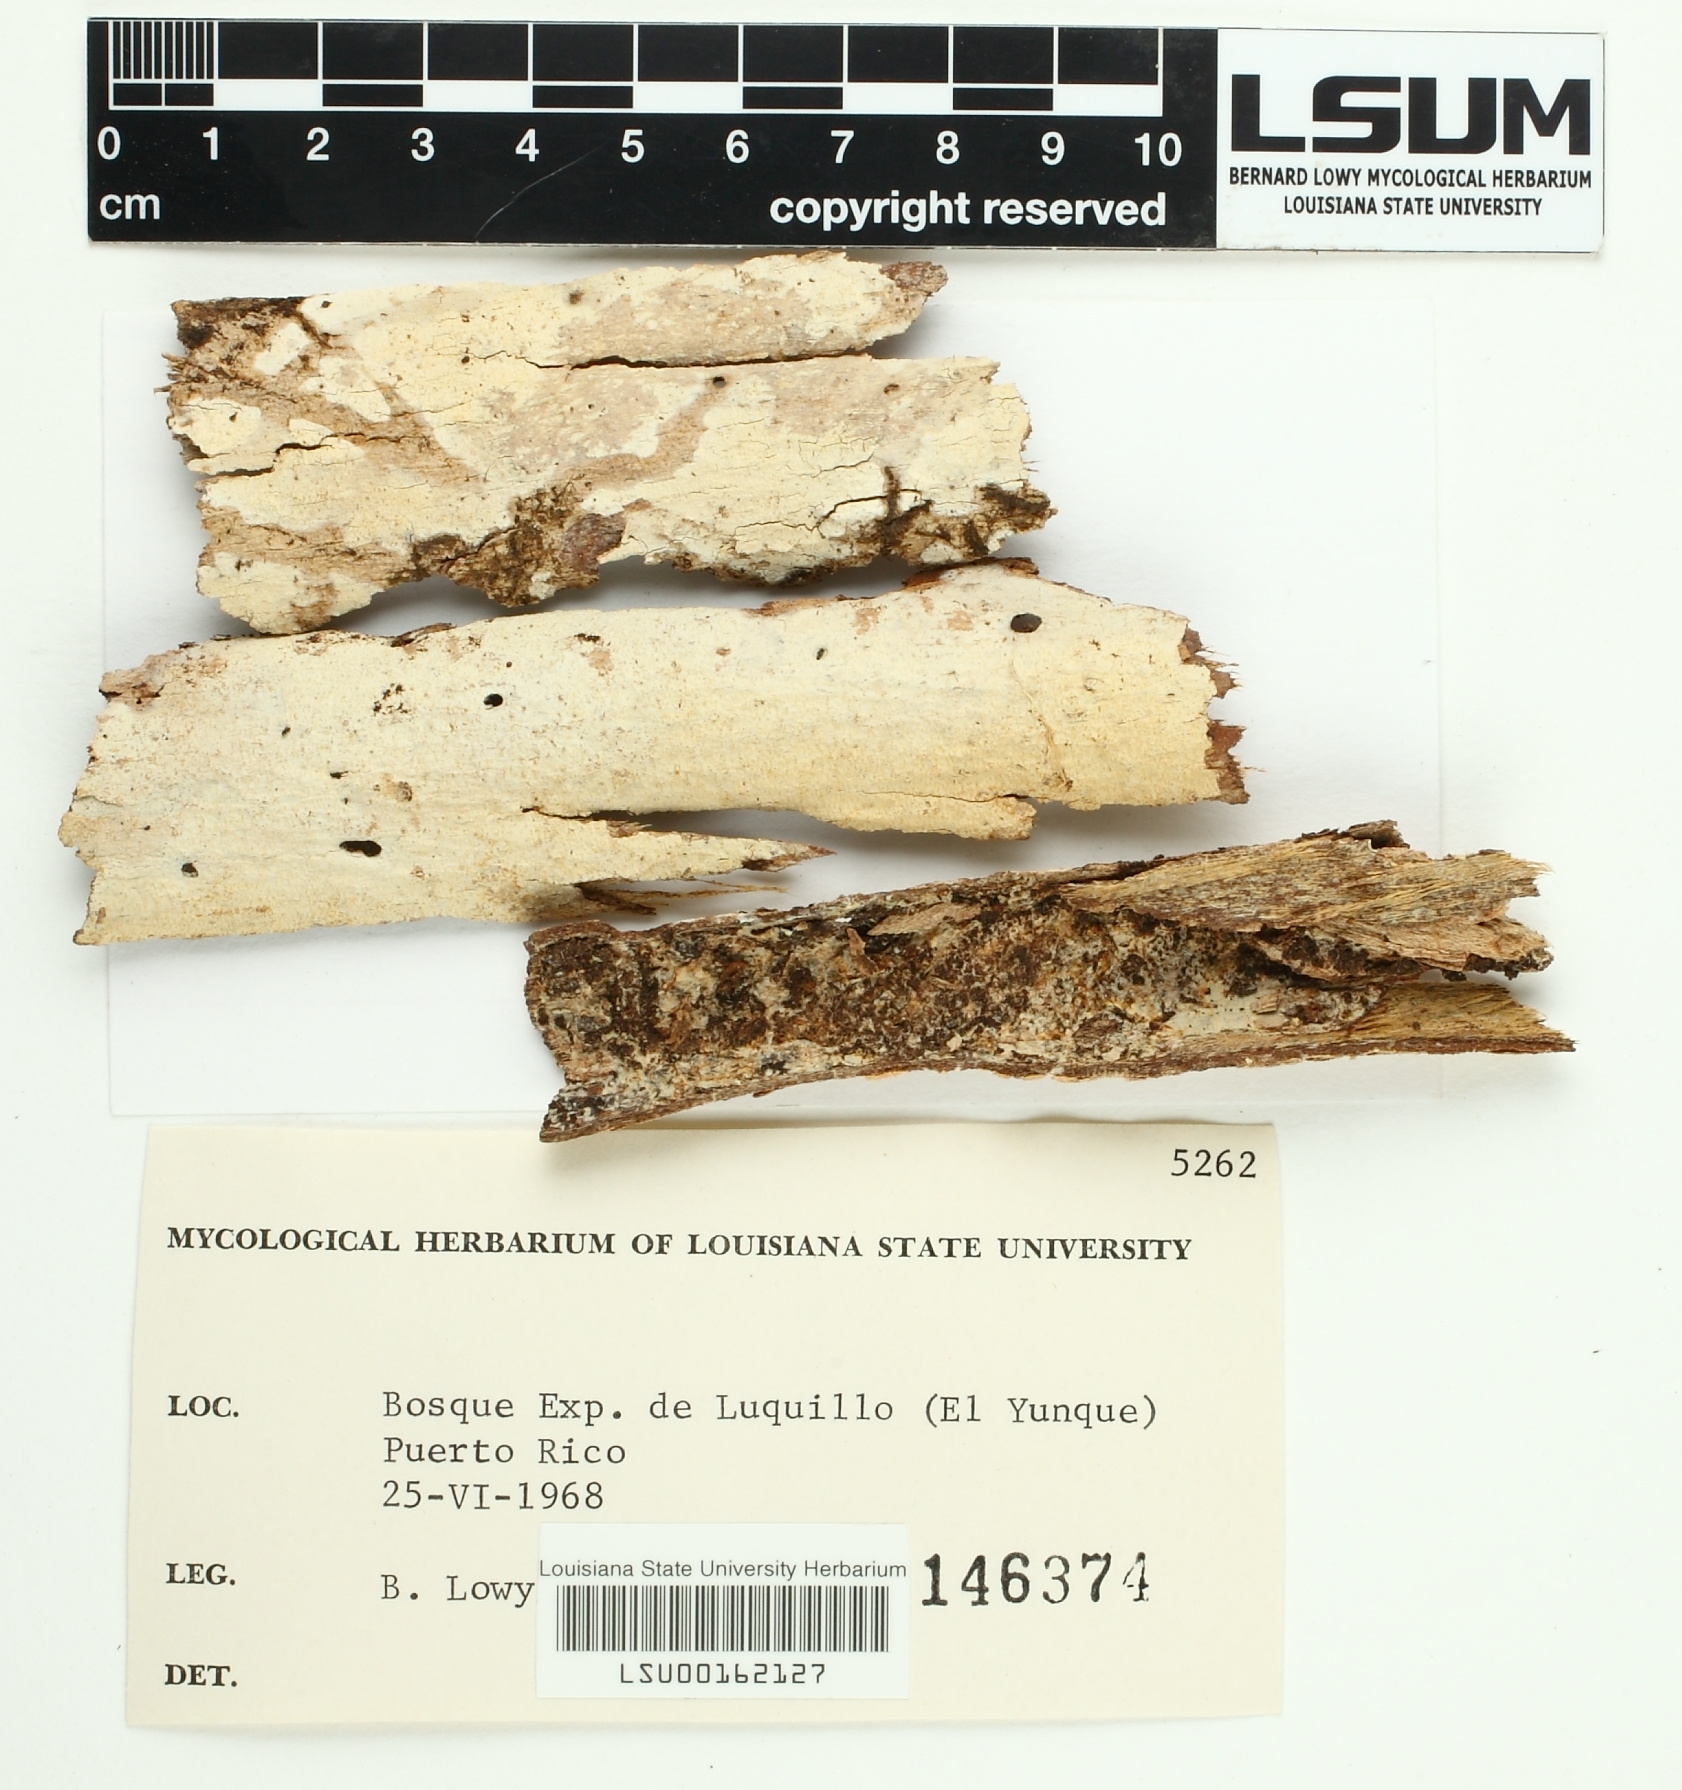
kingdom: Fungi
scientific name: Fungi
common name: Fungi
